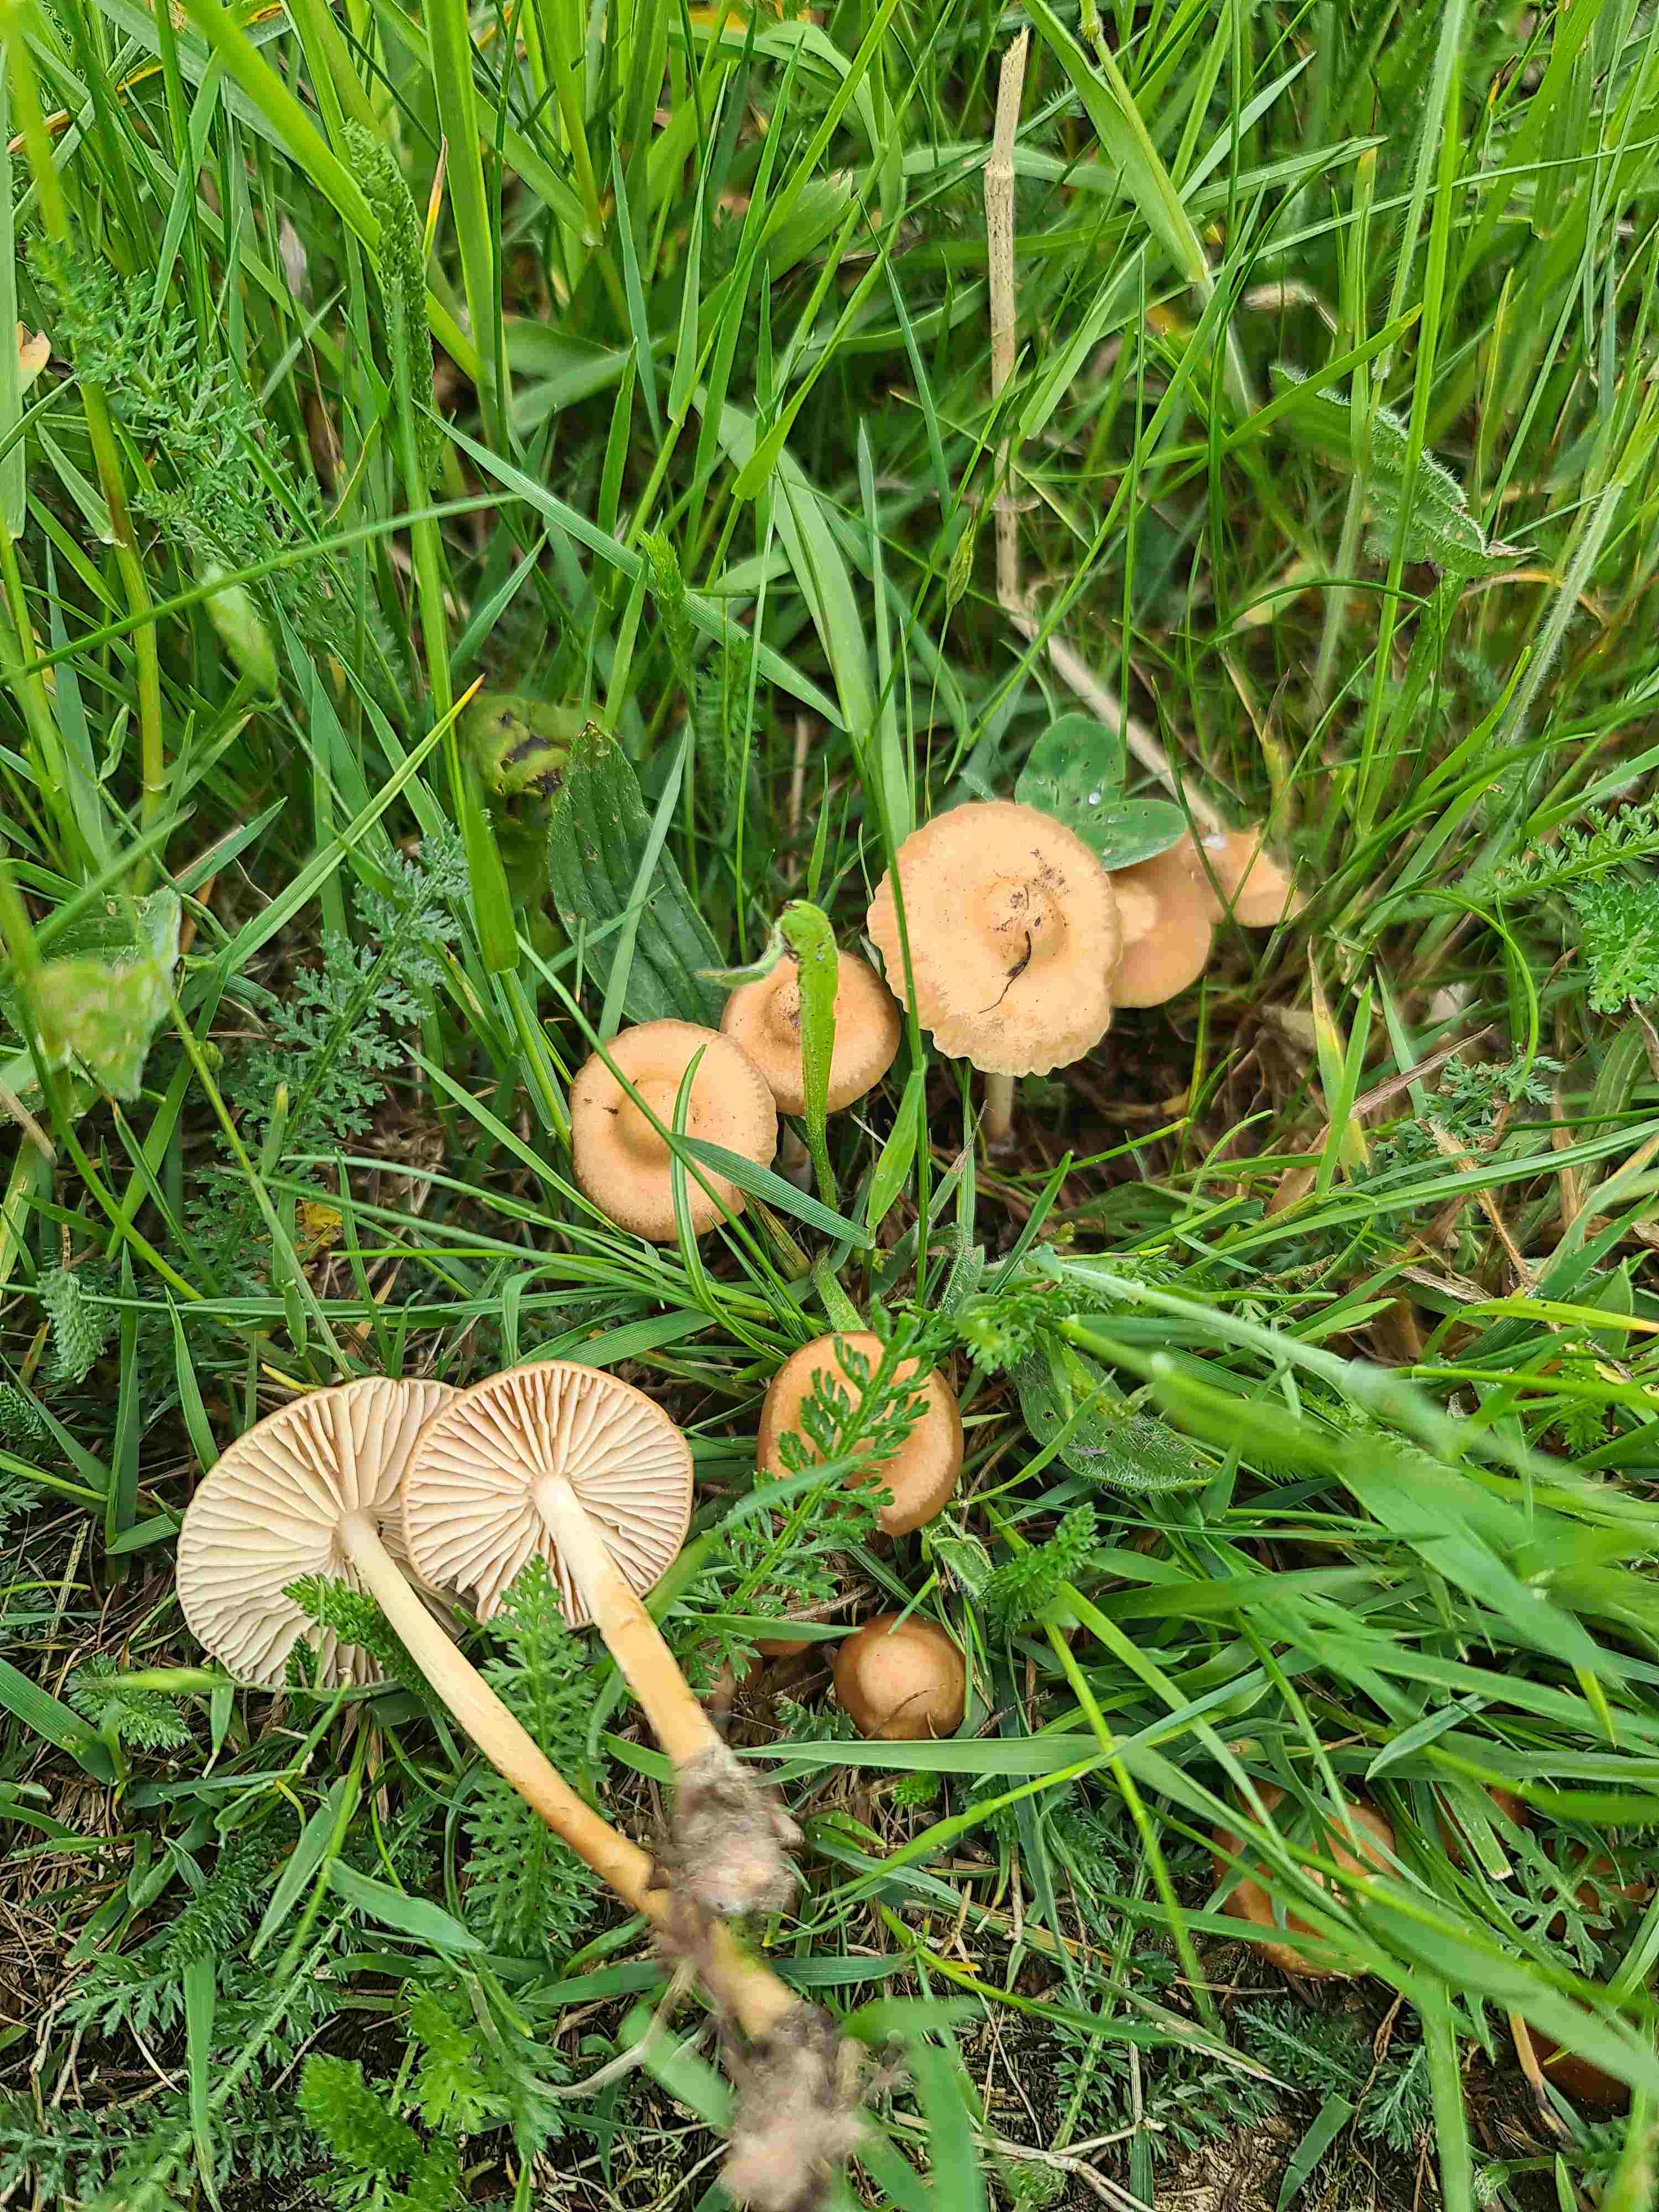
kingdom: Fungi
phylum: Basidiomycota
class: Agaricomycetes
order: Agaricales
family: Marasmiaceae
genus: Marasmius
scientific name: Marasmius oreades
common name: elledans-bruskhat
